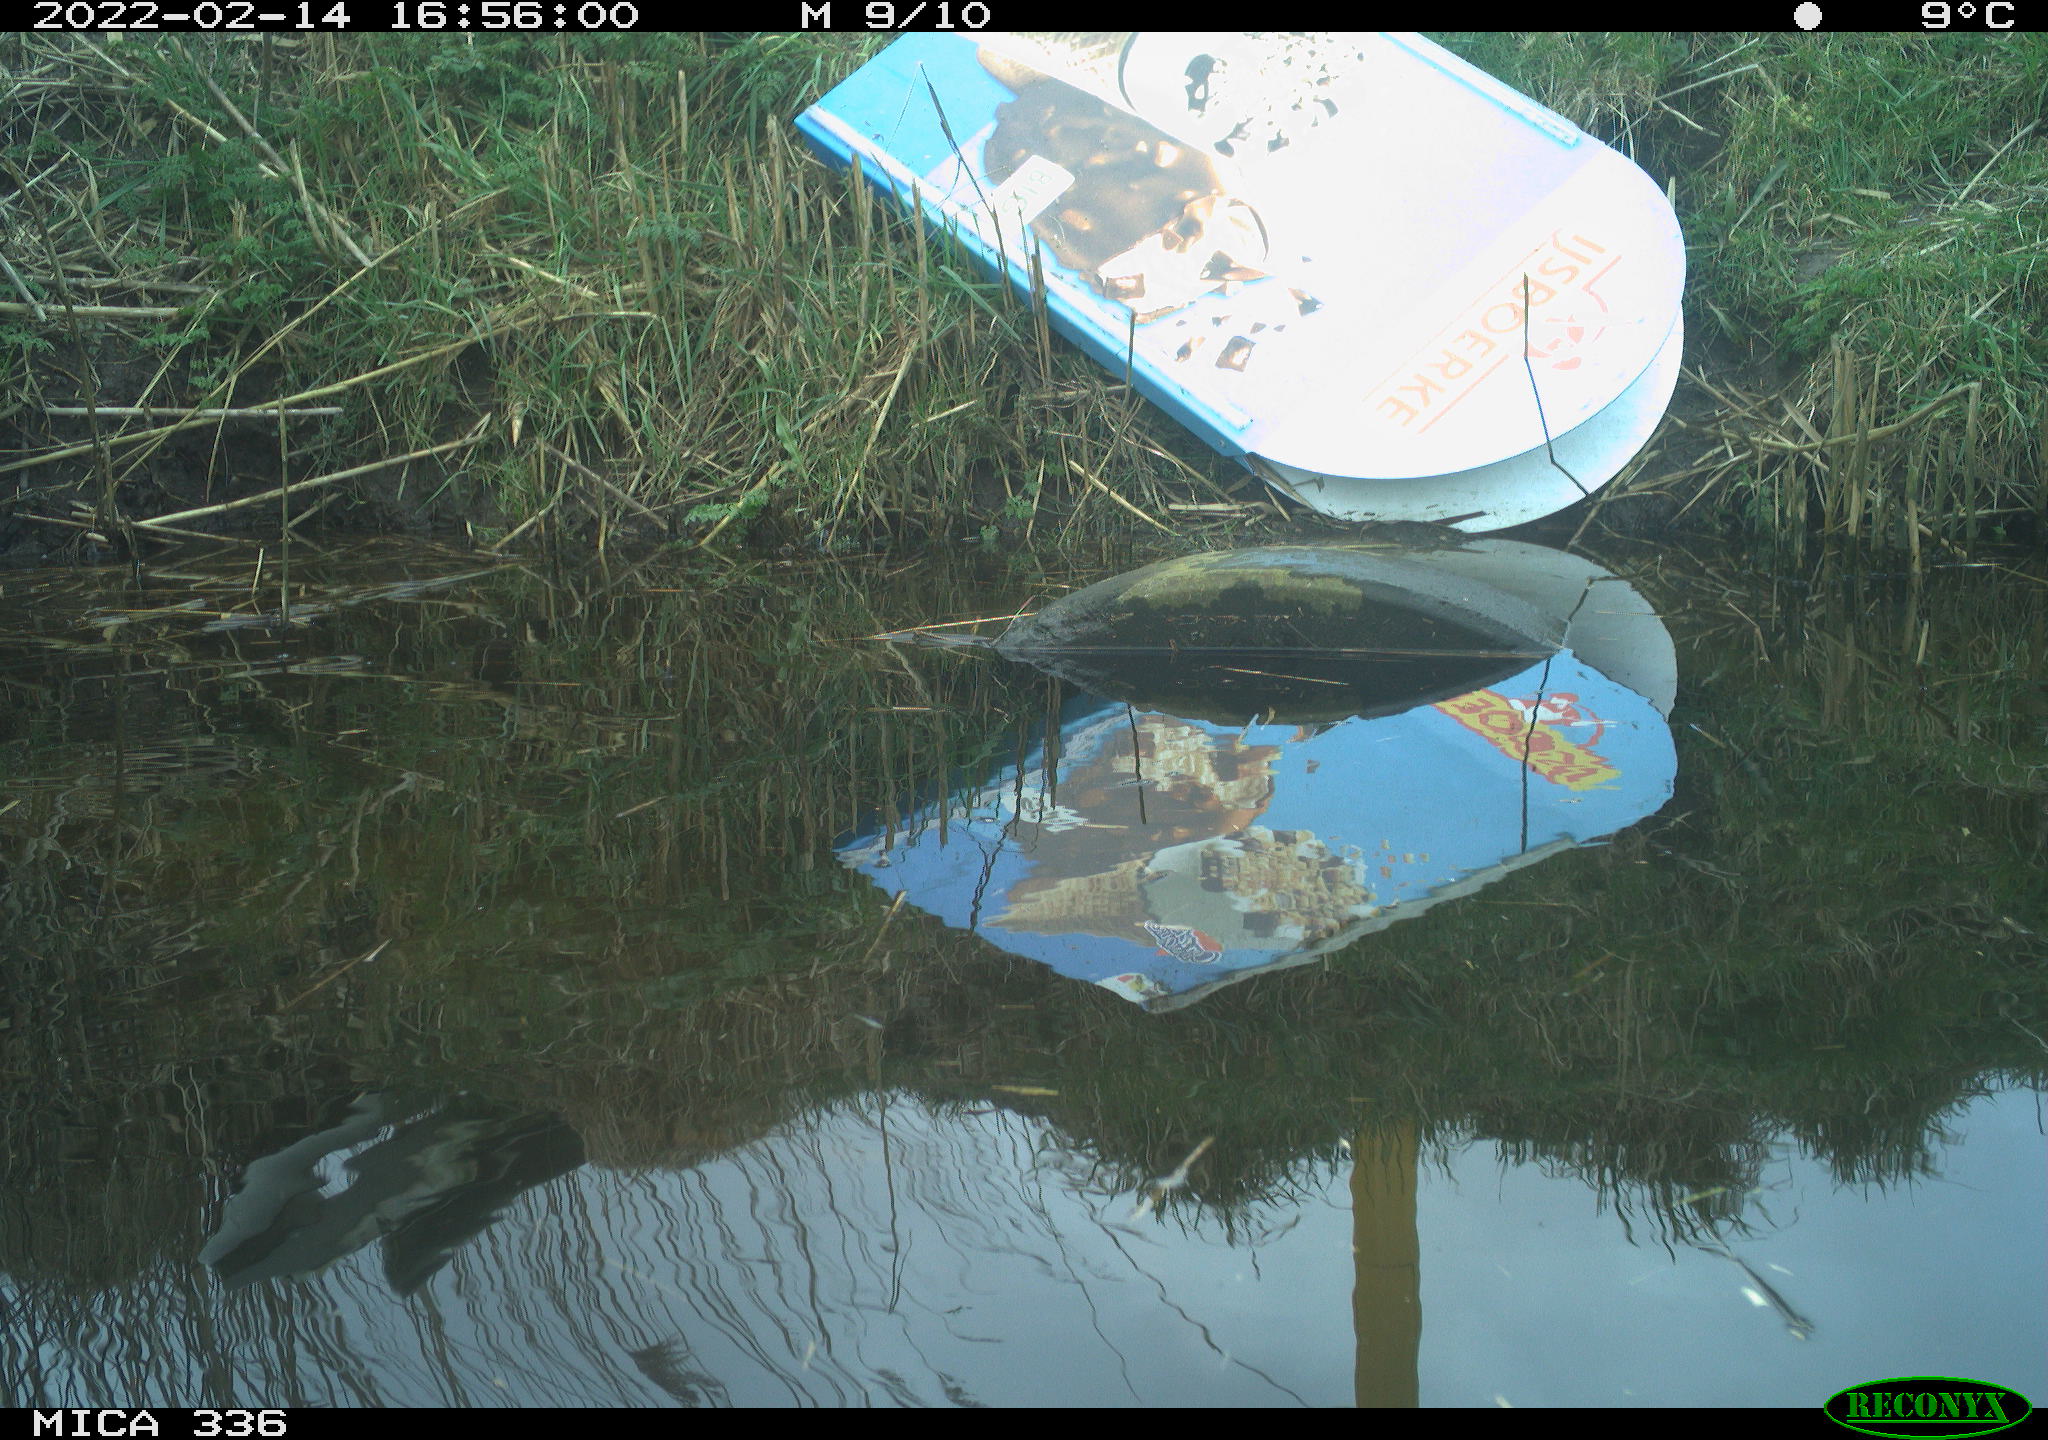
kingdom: Animalia
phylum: Chordata
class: Aves
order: Gruiformes
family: Rallidae
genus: Gallinula
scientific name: Gallinula chloropus
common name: Common moorhen
